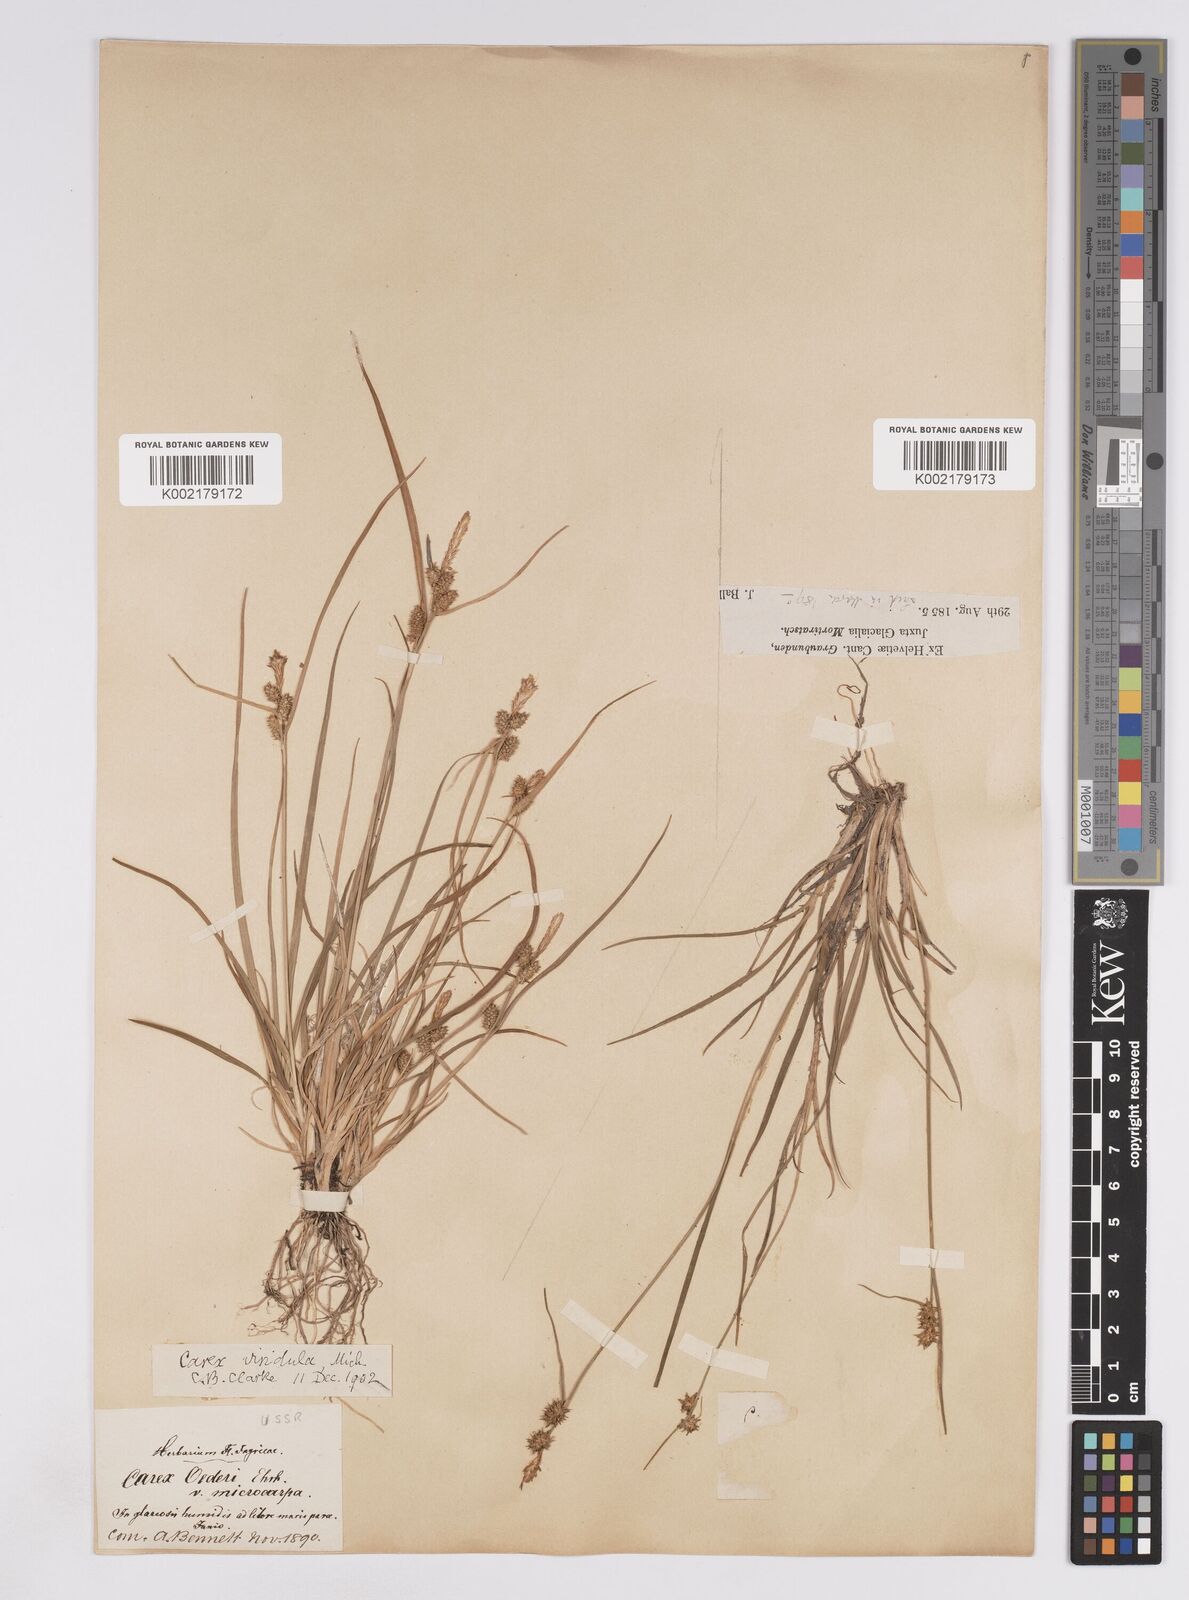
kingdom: Plantae
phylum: Tracheophyta
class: Liliopsida
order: Poales
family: Cyperaceae
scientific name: Cyperaceae
